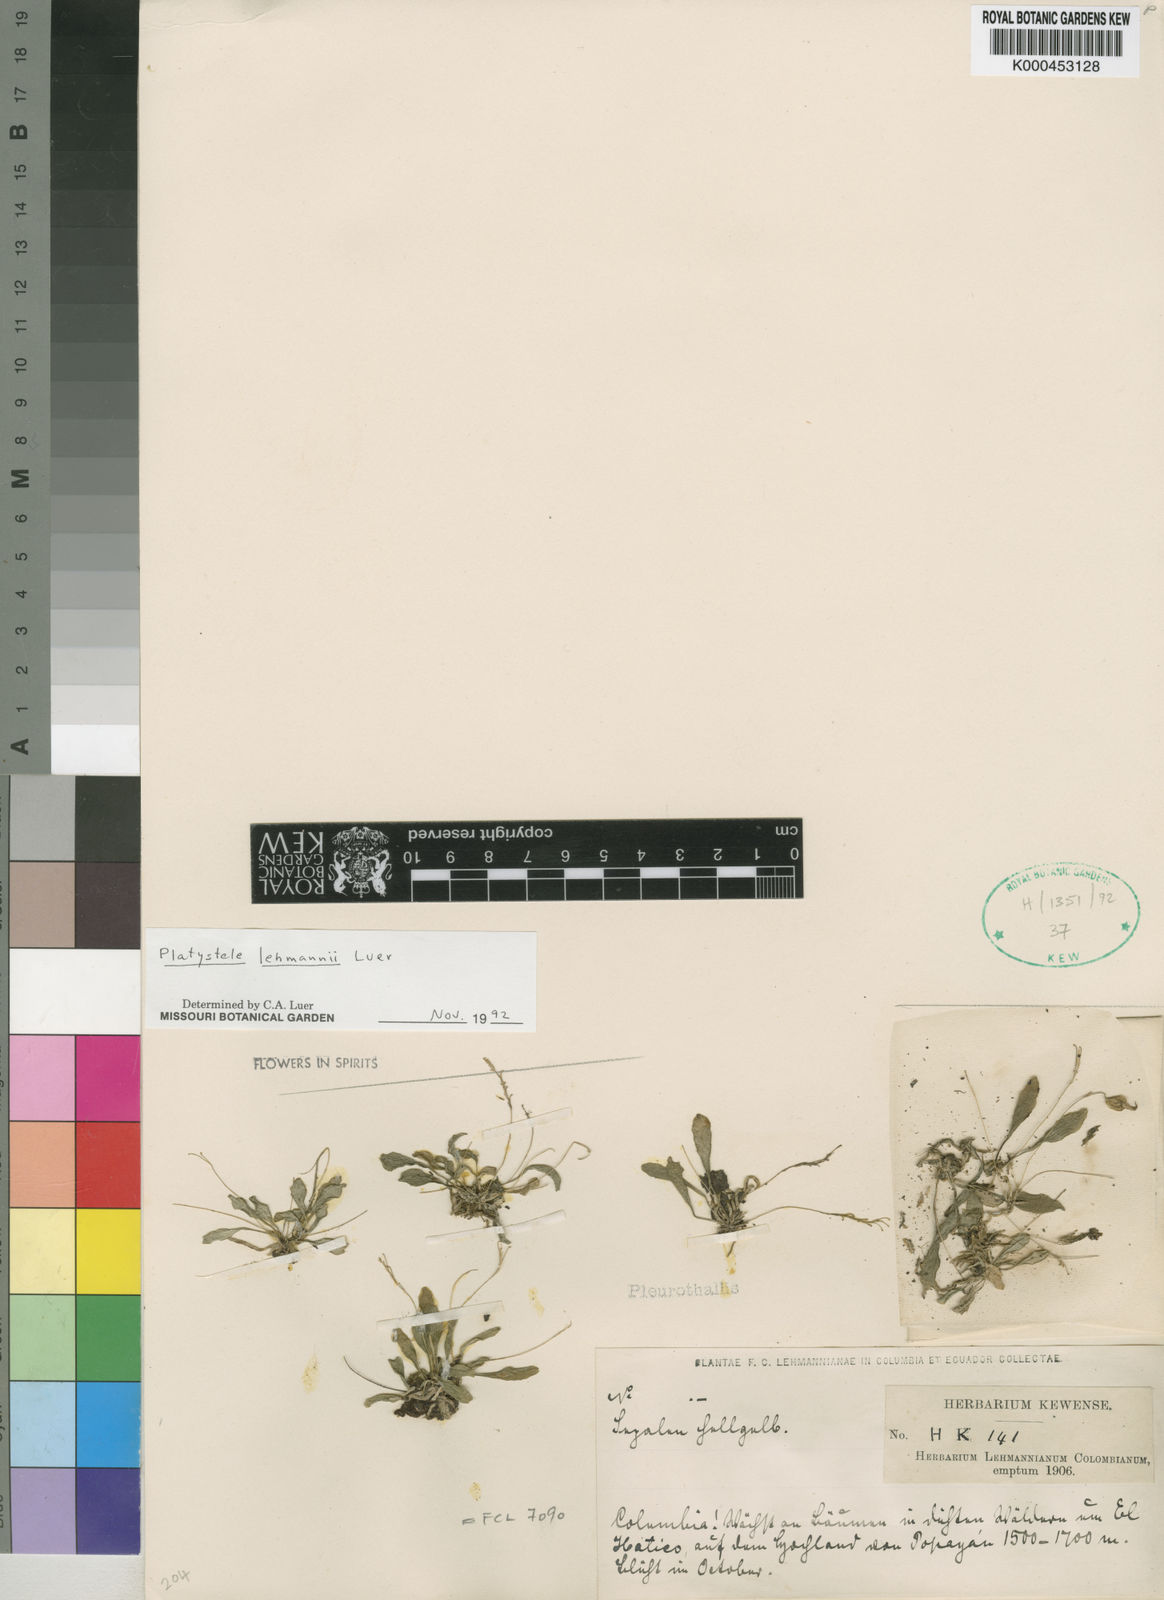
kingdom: Plantae
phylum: Tracheophyta
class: Liliopsida
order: Asparagales
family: Orchidaceae
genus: Platystele
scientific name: Platystele lehmannii
